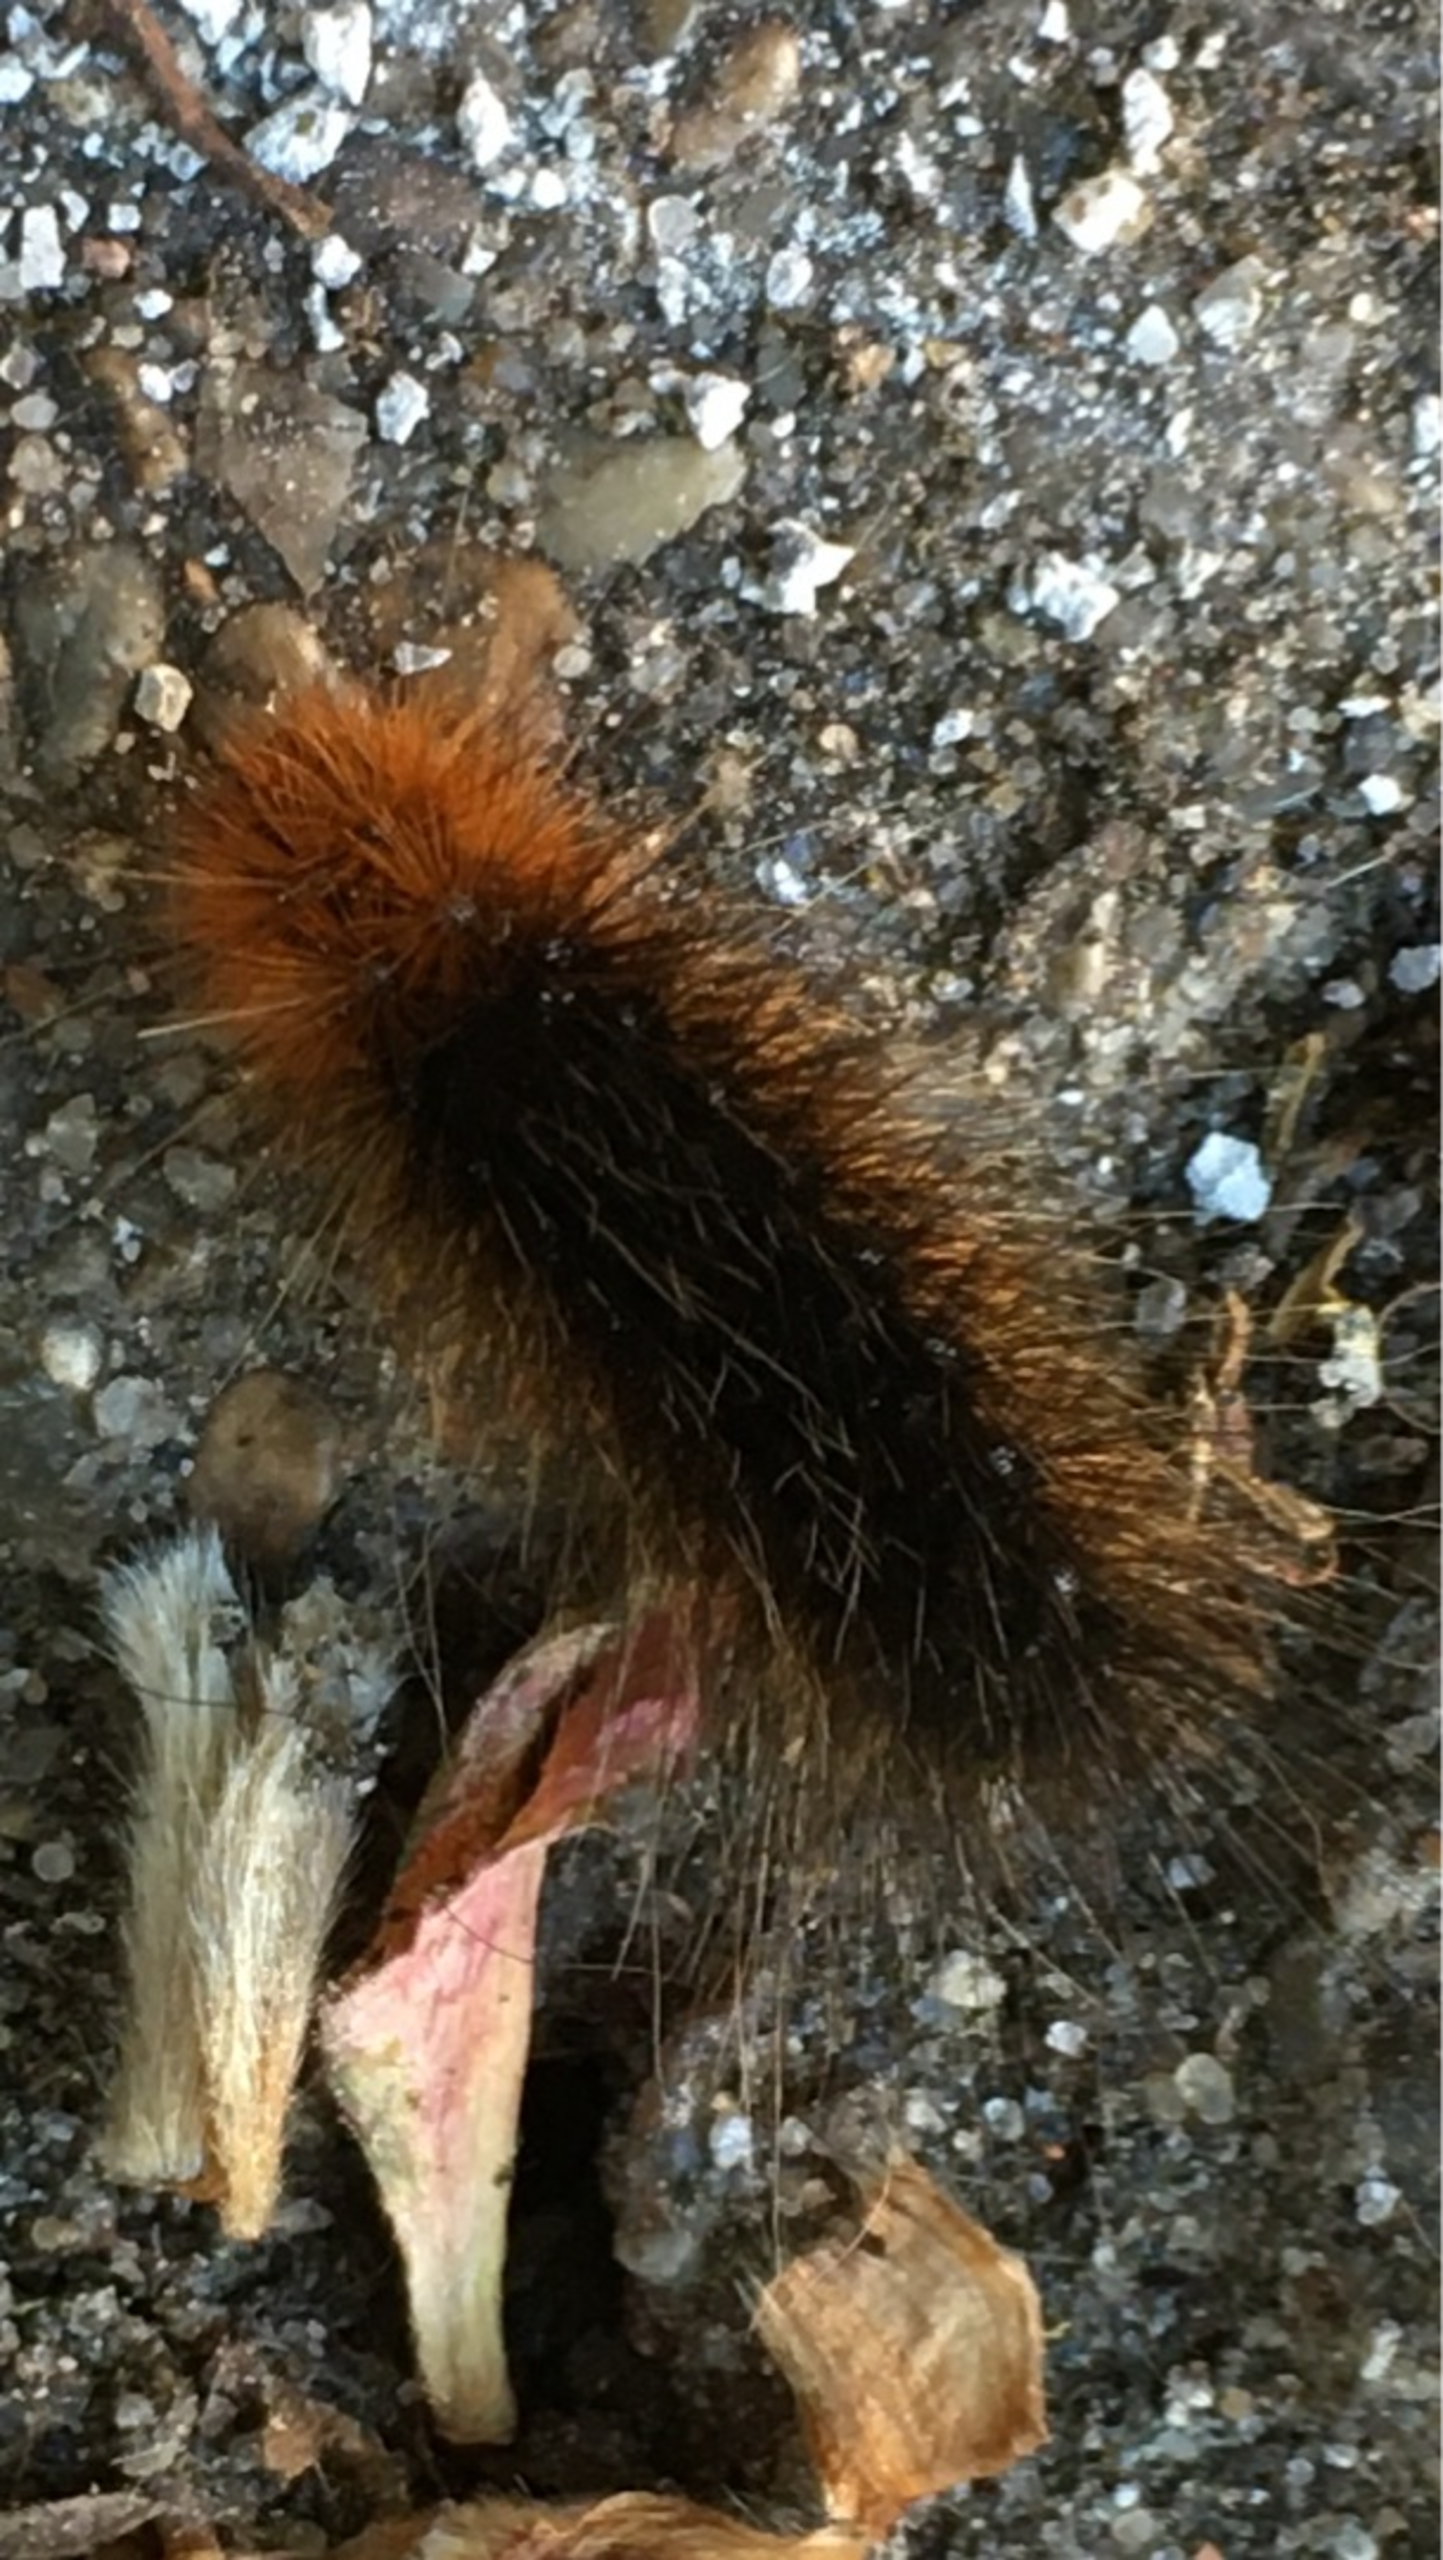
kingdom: Animalia
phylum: Arthropoda
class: Insecta
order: Lepidoptera
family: Erebidae
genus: Arctia
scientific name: Arctia caja
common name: Brun bjørn
